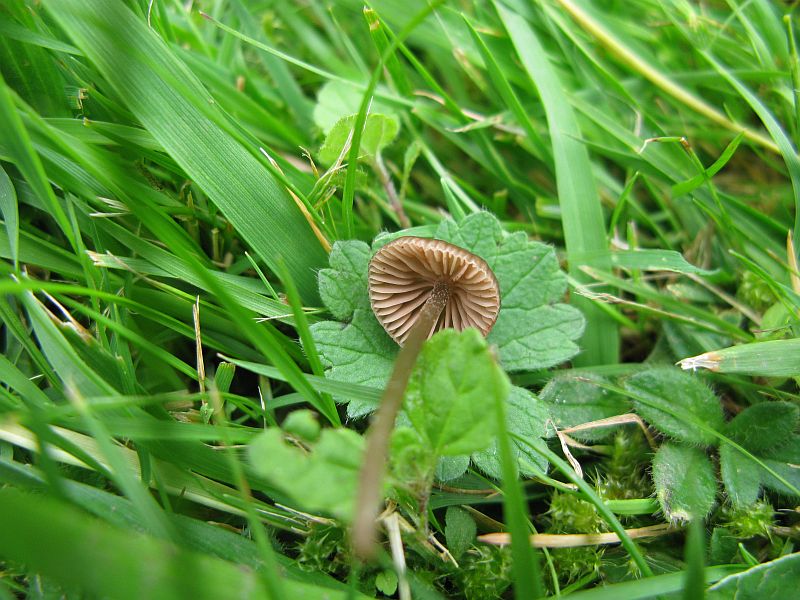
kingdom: Fungi
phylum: Basidiomycota
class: Agaricomycetes
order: Agaricales
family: Entolomataceae
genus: Entoloma
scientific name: Entoloma clandestinum
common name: tykbladet rødblad
